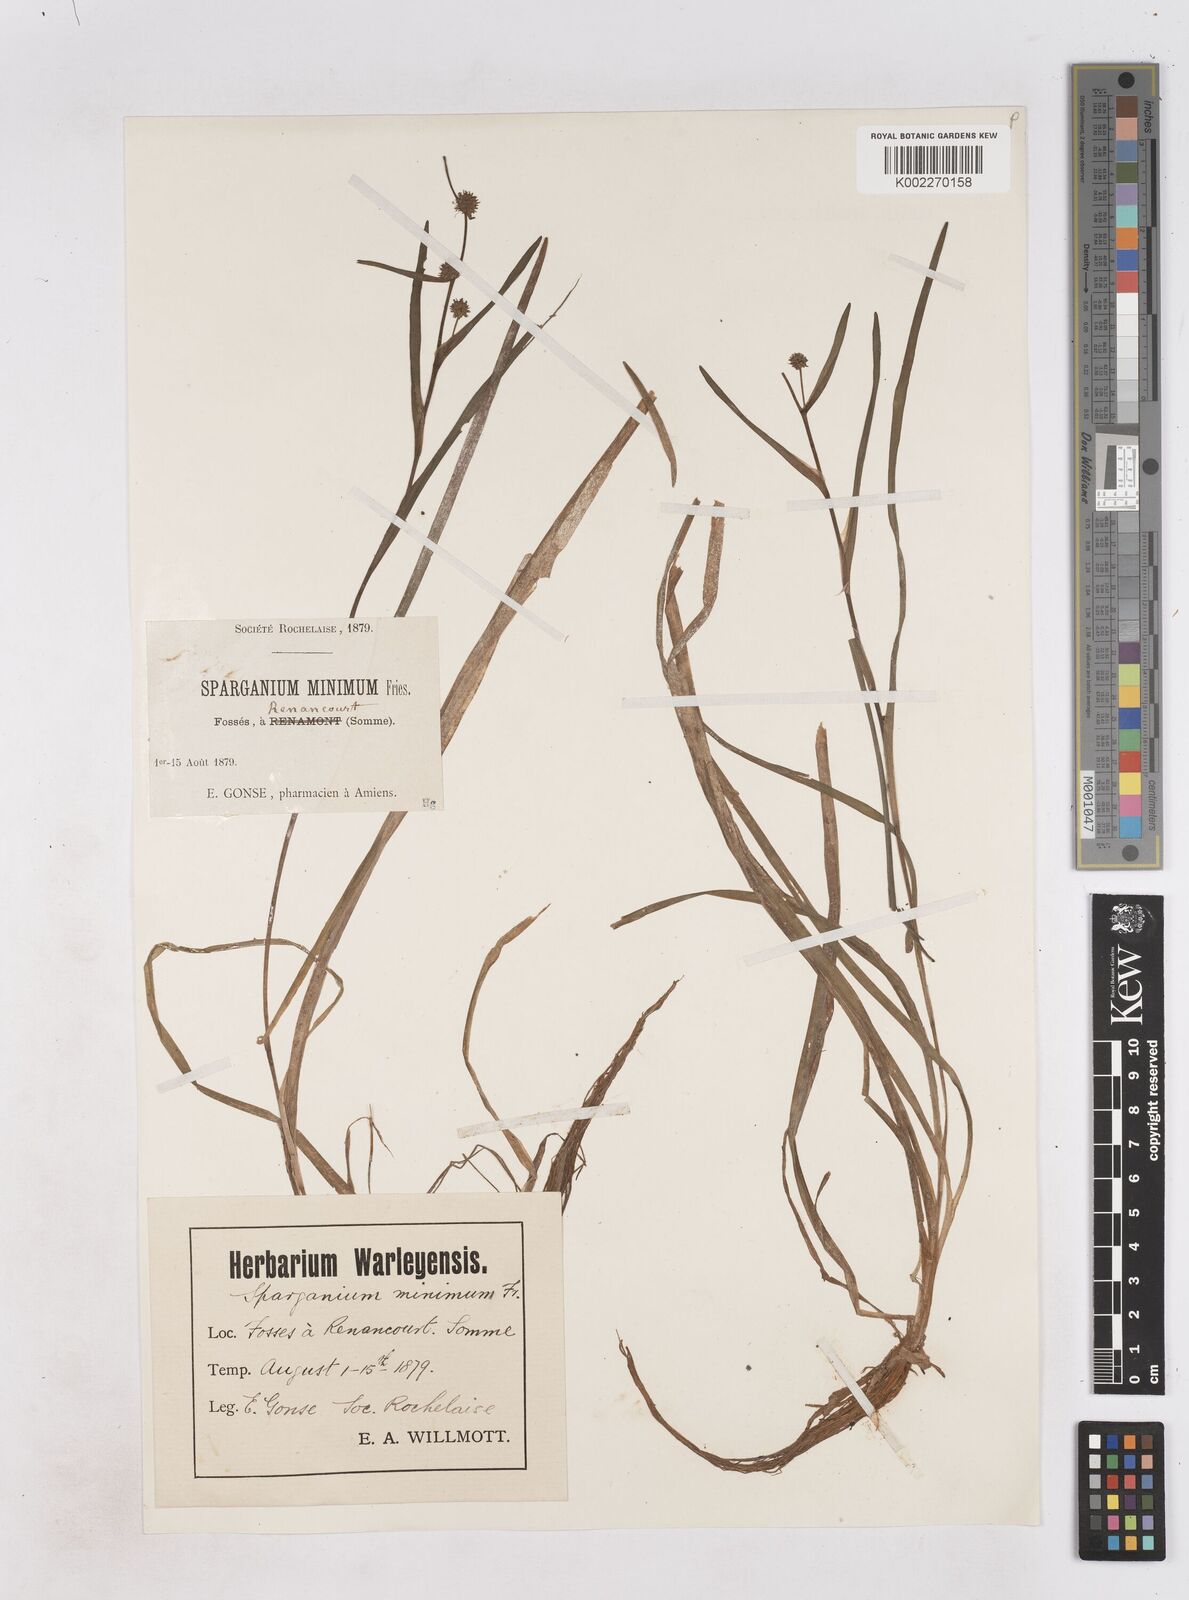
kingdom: Plantae
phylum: Tracheophyta
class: Liliopsida
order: Poales
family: Typhaceae
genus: Sparganium
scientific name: Sparganium natans
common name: Least bur-reed
